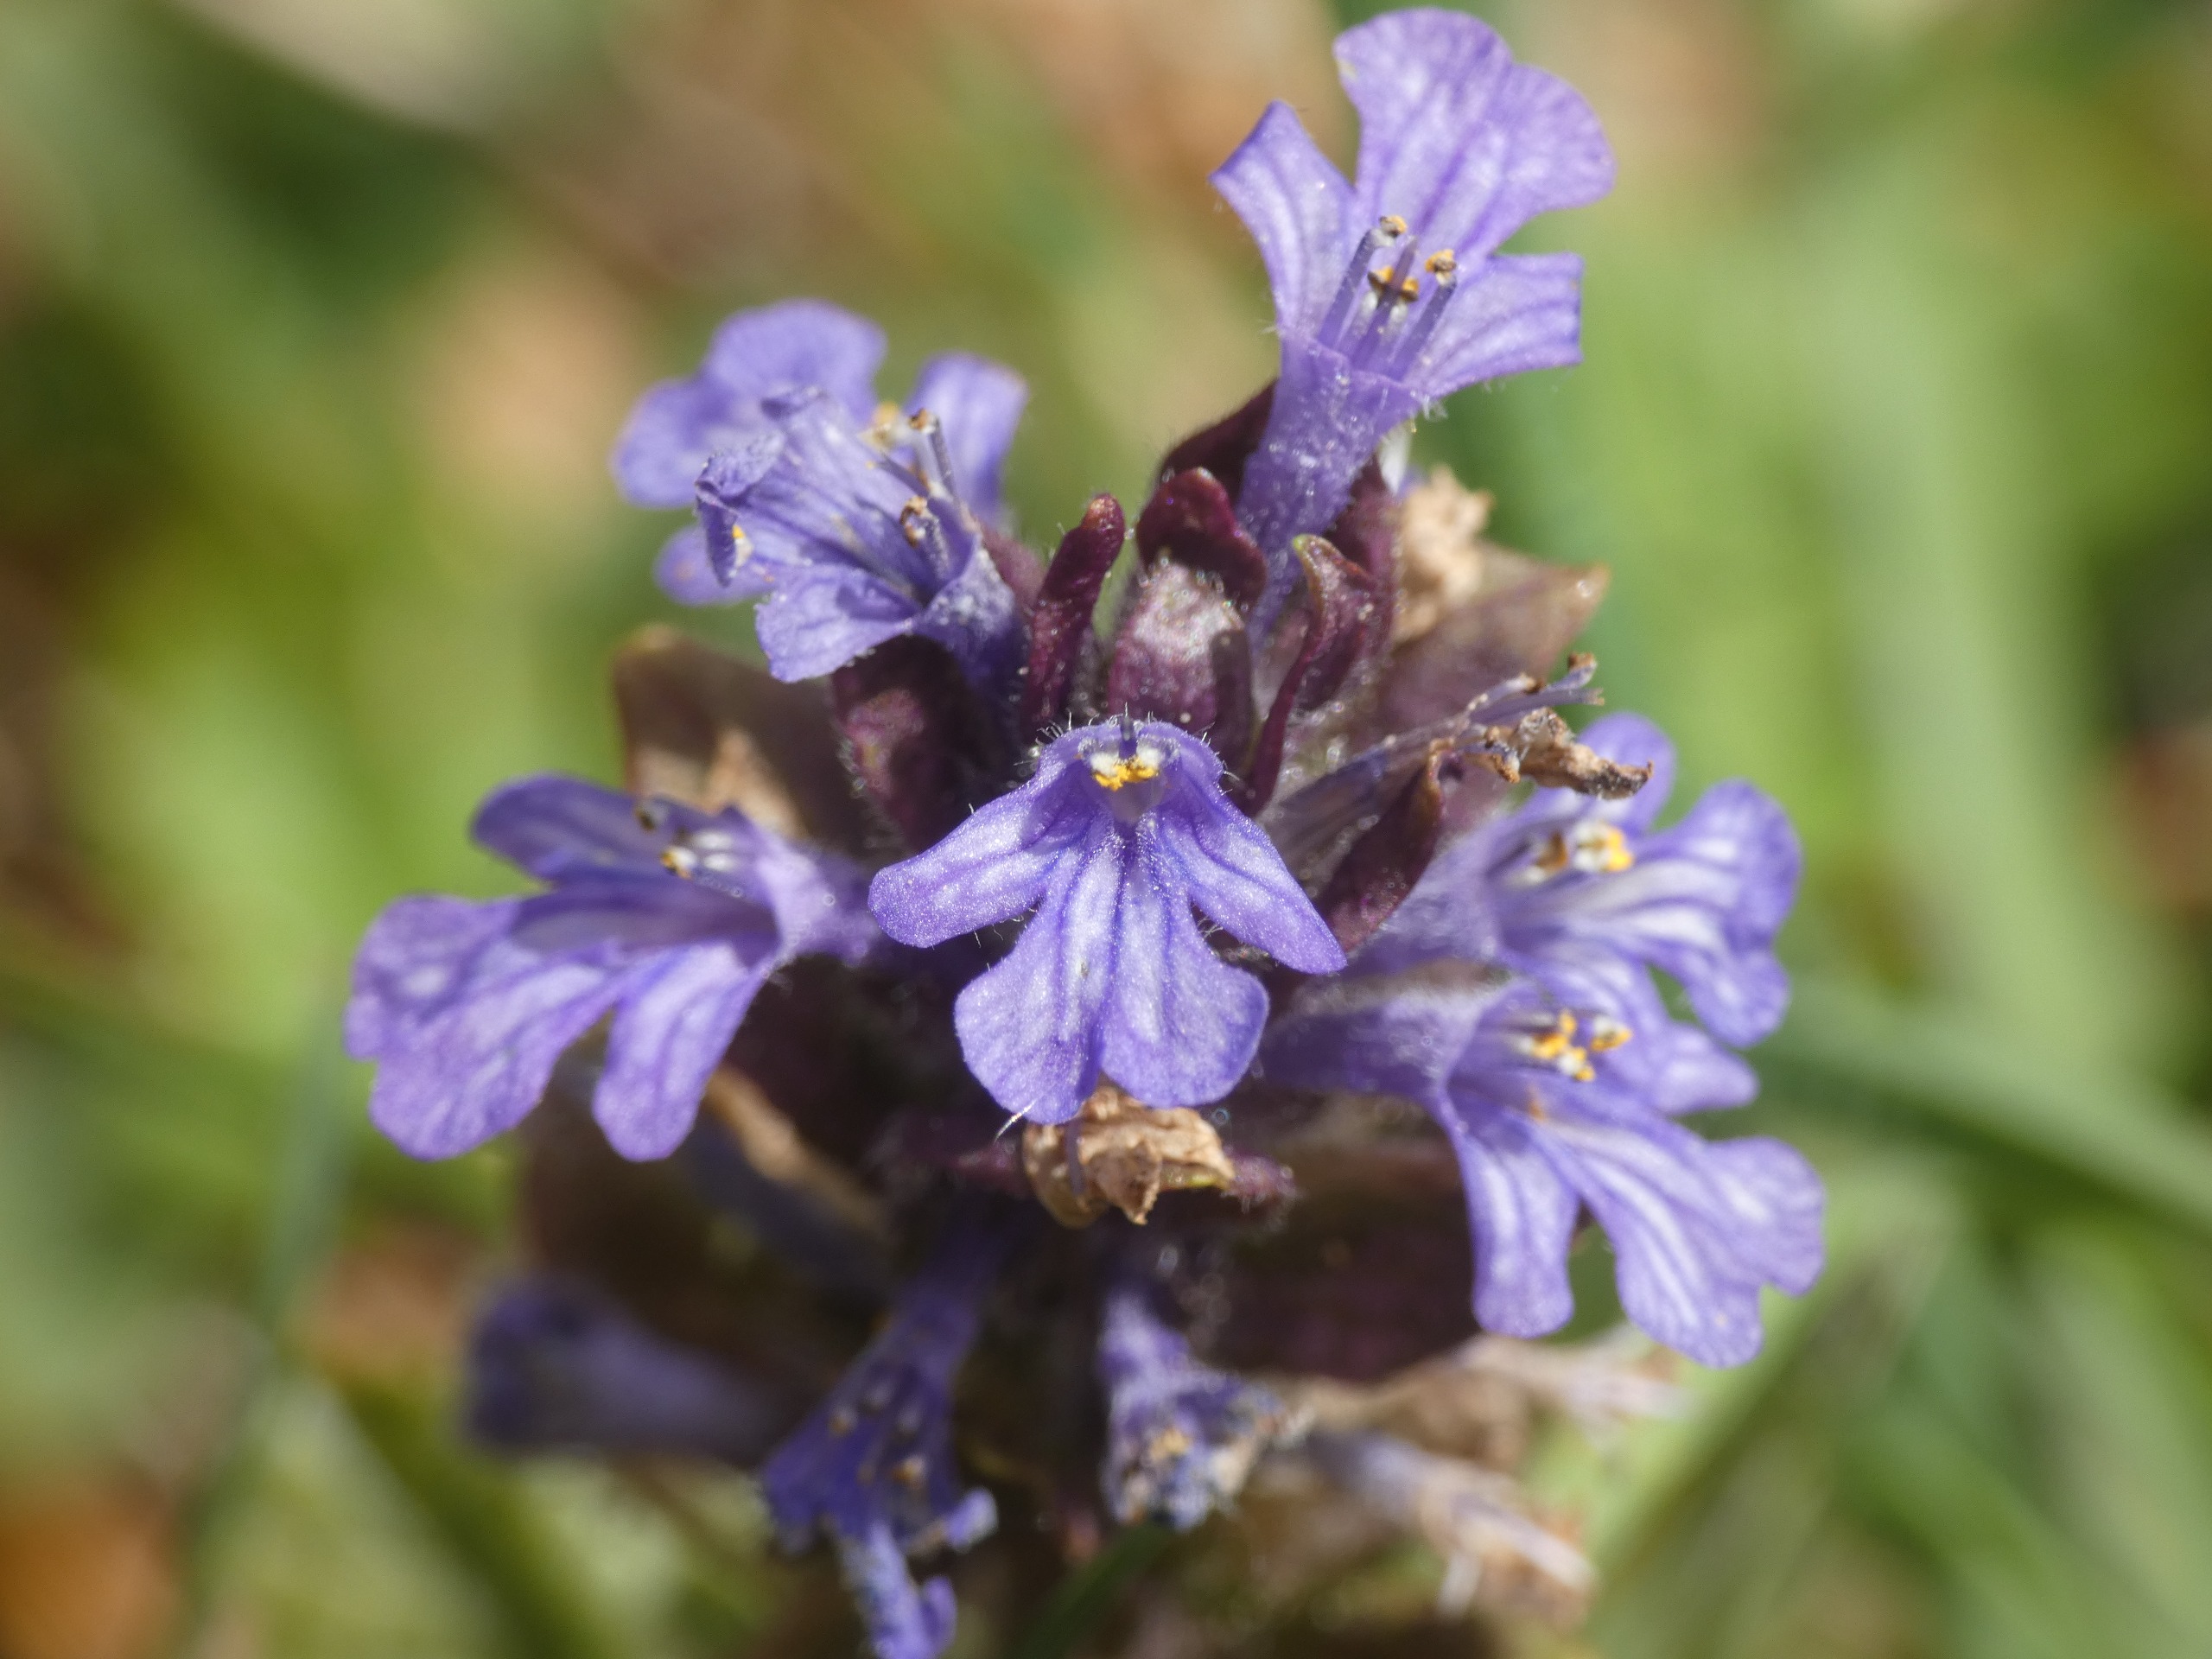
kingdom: Plantae
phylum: Tracheophyta
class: Magnoliopsida
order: Lamiales
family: Lamiaceae
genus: Ajuga
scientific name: Ajuga reptans
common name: Krybende læbeløs
